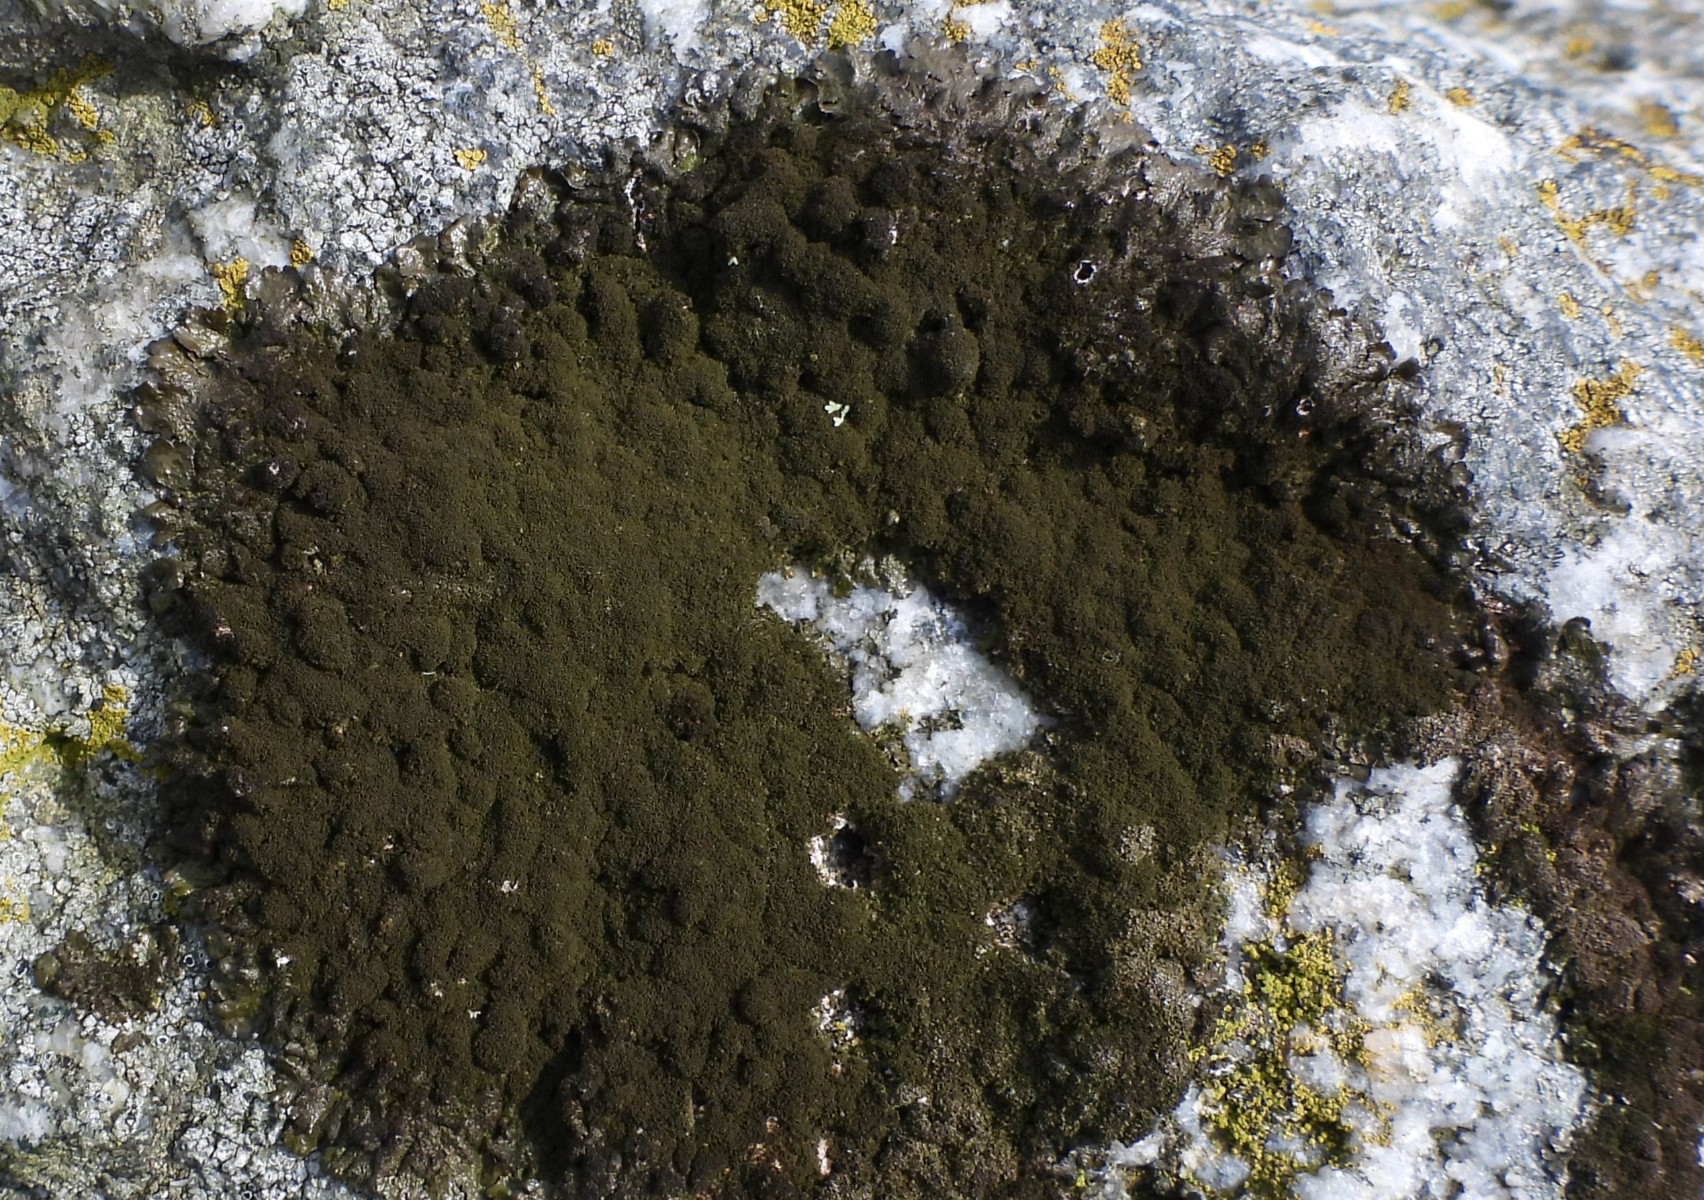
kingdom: Fungi
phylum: Ascomycota
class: Lecanoromycetes
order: Lecanorales
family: Parmeliaceae
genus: Melanelixia
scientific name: Melanelixia fuliginosa
